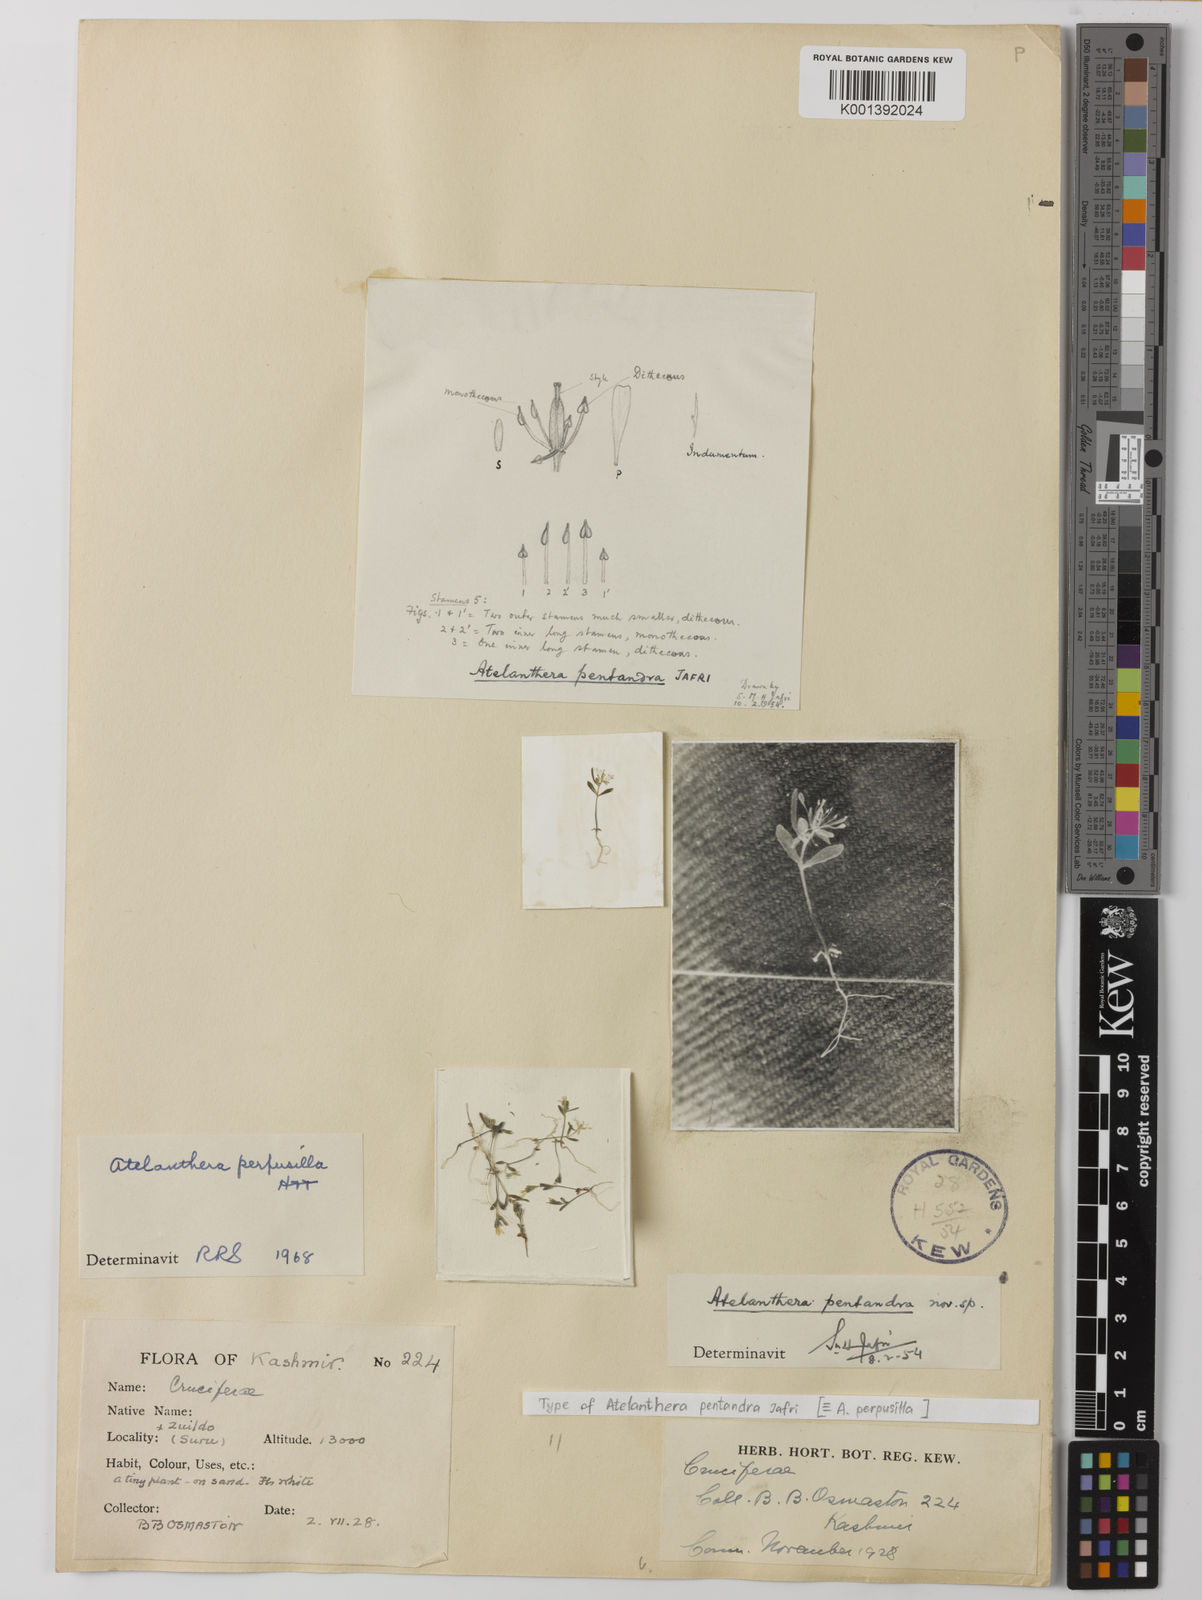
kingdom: Plantae
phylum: Tracheophyta
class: Magnoliopsida
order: Brassicales
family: Brassicaceae
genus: Atelanthera
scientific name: Atelanthera perpusilla
